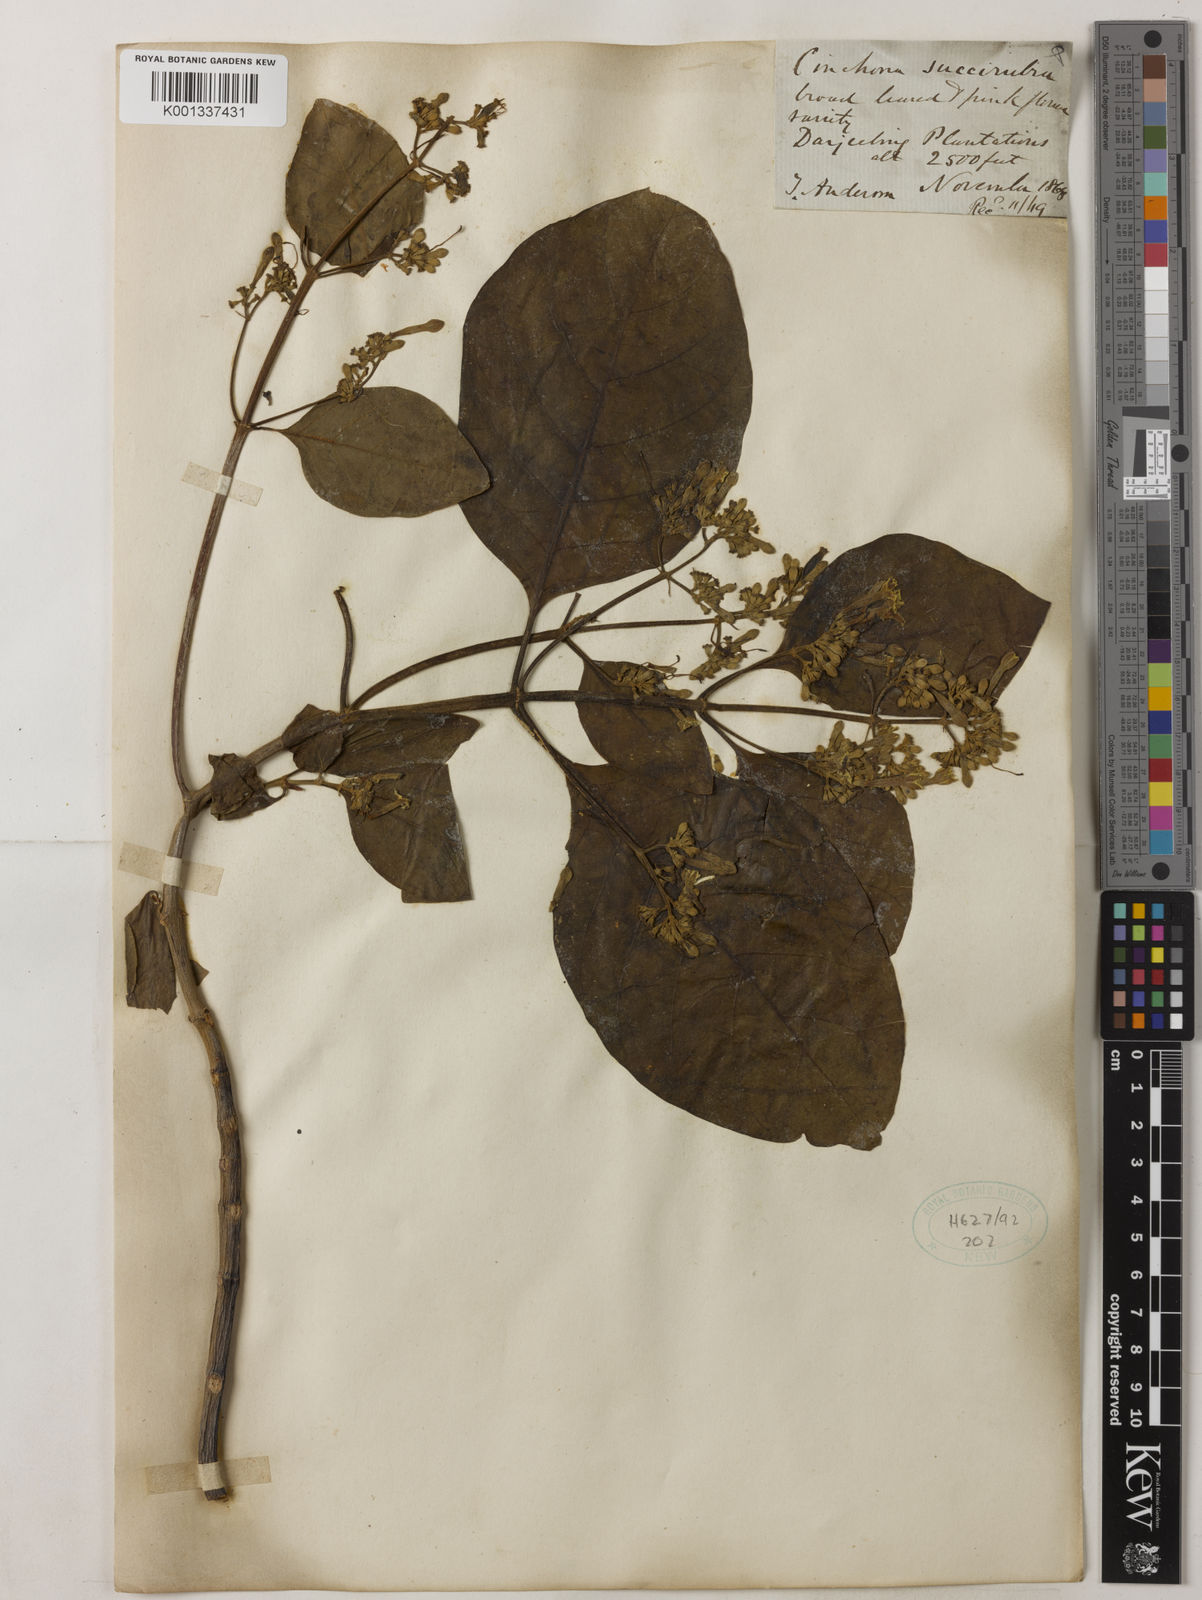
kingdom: Plantae
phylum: Tracheophyta
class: Magnoliopsida
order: Gentianales
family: Rubiaceae
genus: Cinchona
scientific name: Cinchona pubescens
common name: Quinine
